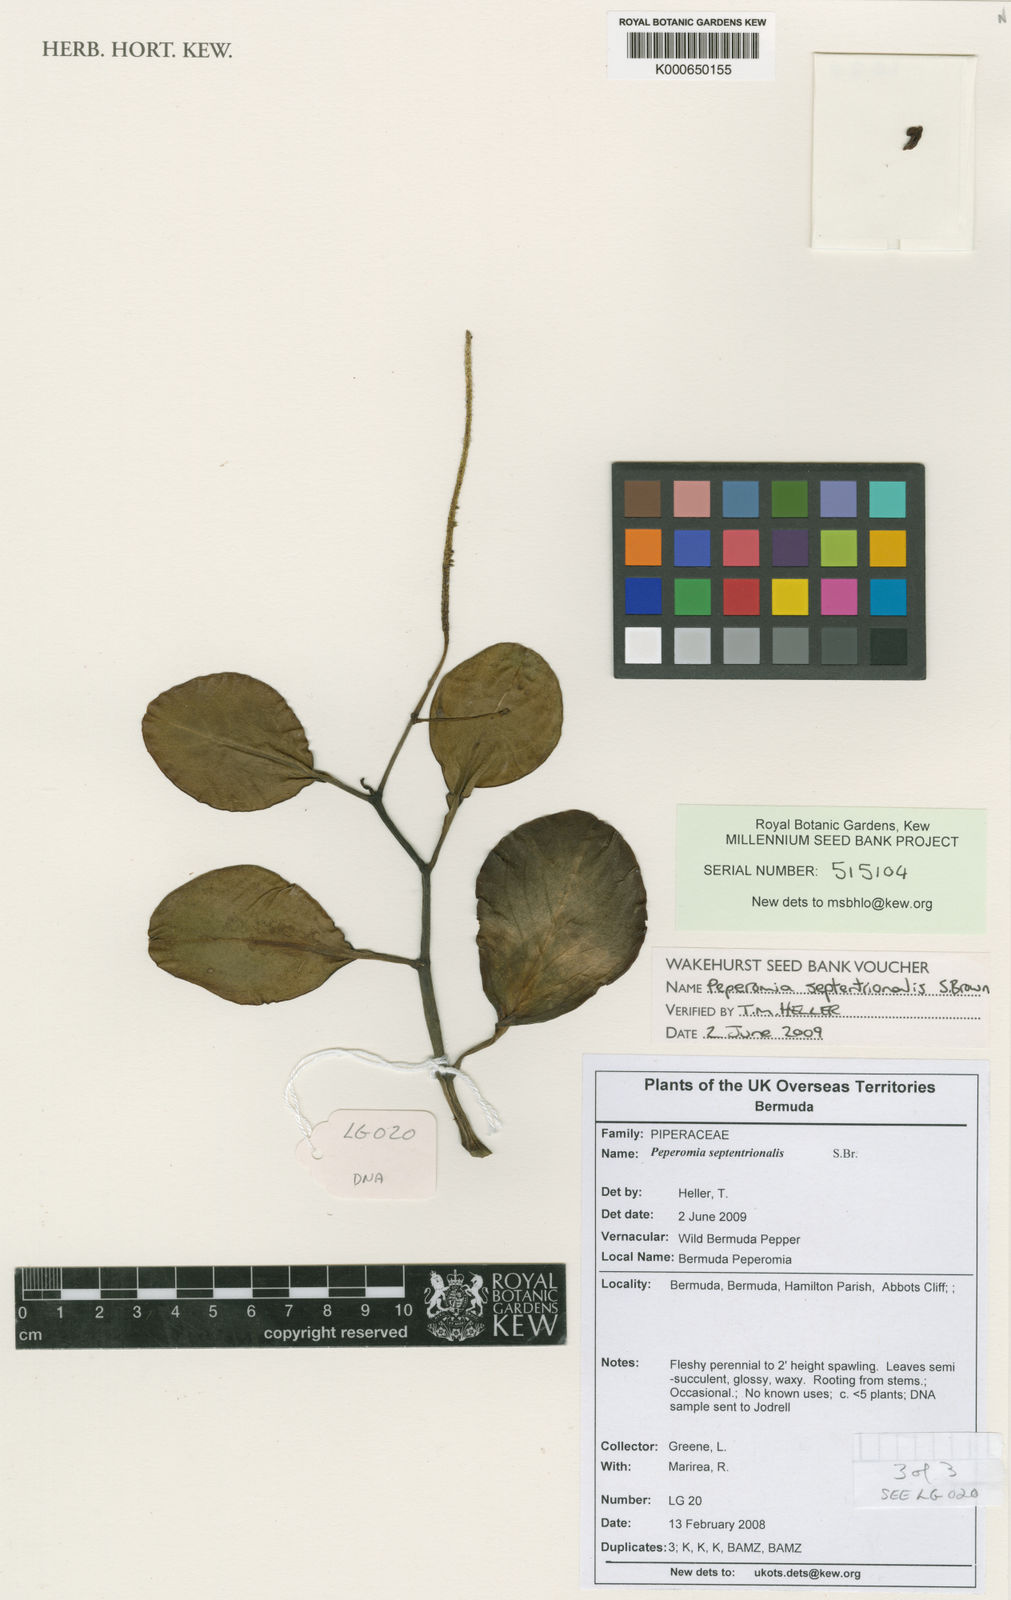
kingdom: Plantae
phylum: Tracheophyta
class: Magnoliopsida
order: Piperales
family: Piperaceae
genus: Peperomia
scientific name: Peperomia septentrionalis
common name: Wild bermuda pepper
